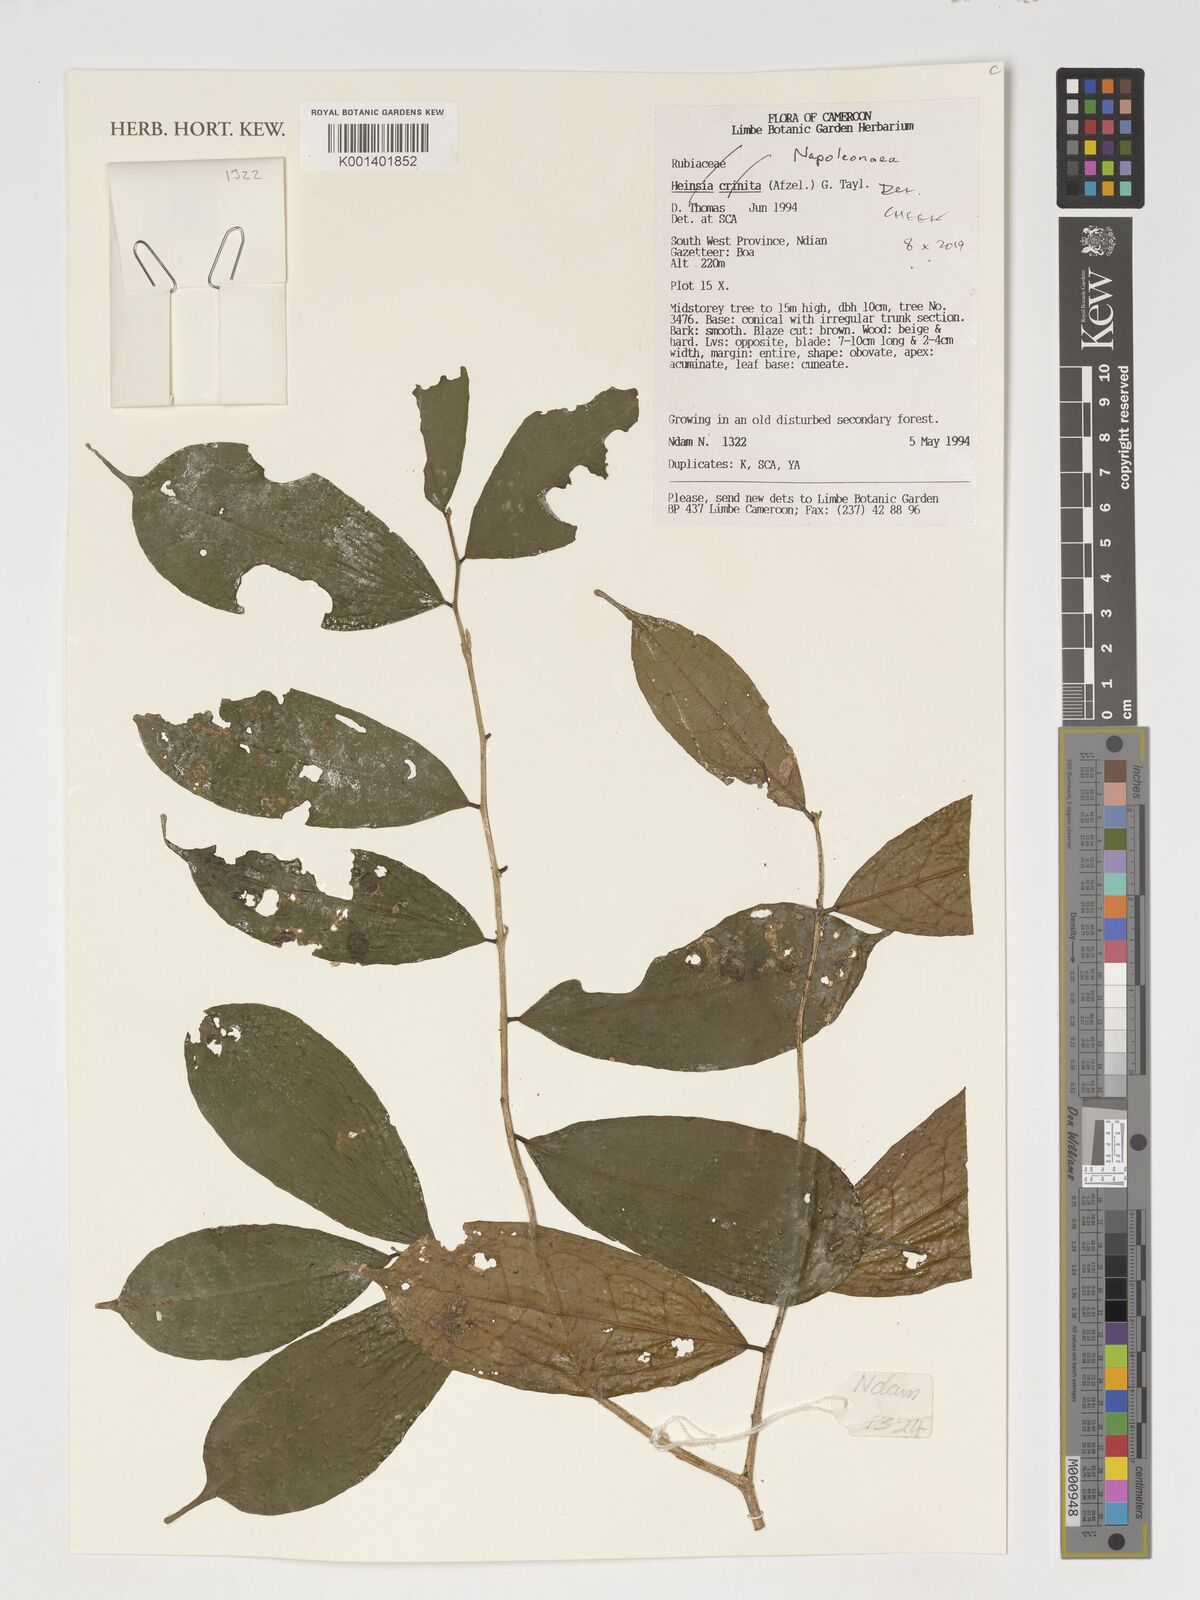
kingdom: Plantae
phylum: Tracheophyta
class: Magnoliopsida
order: Ericales
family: Lecythidaceae
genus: Napoleonaea
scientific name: Napoleonaea
